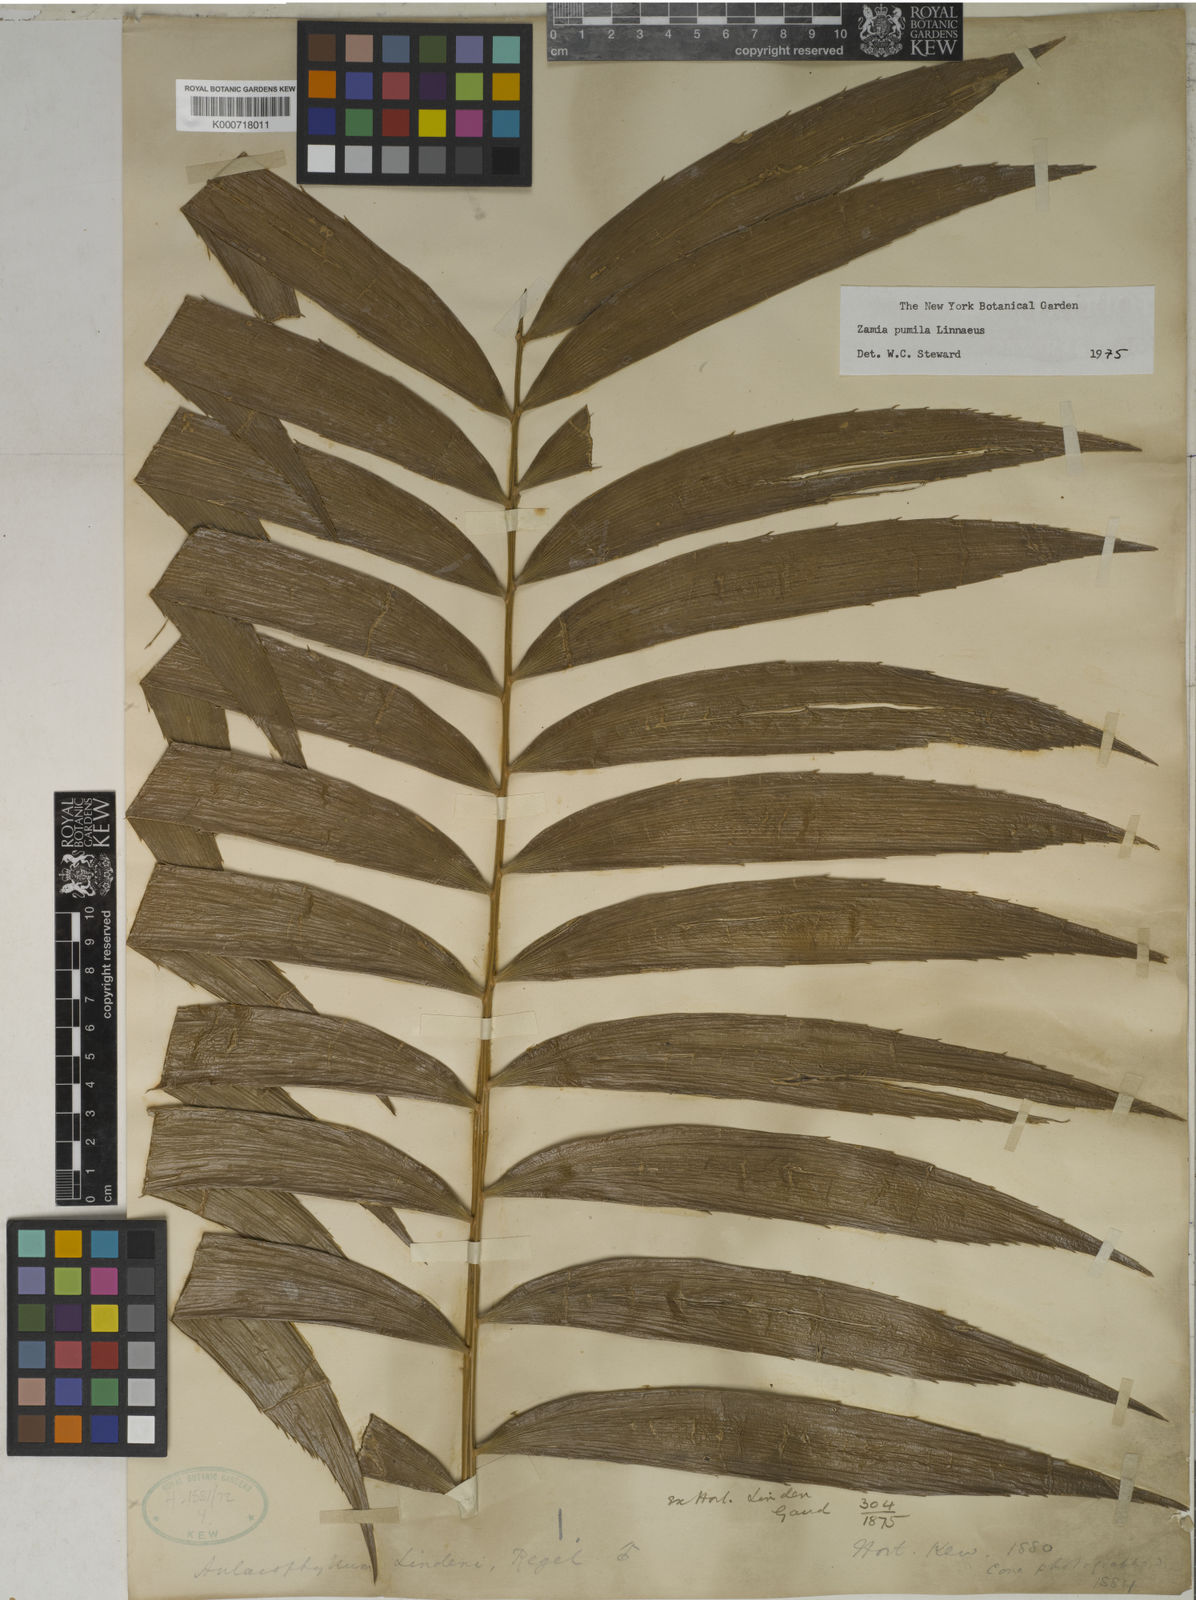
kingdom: Plantae
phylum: Tracheophyta
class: Cycadopsida
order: Cycadales
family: Zamiaceae
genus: Zamia
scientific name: Zamia pumila
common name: Florida arrowroot
